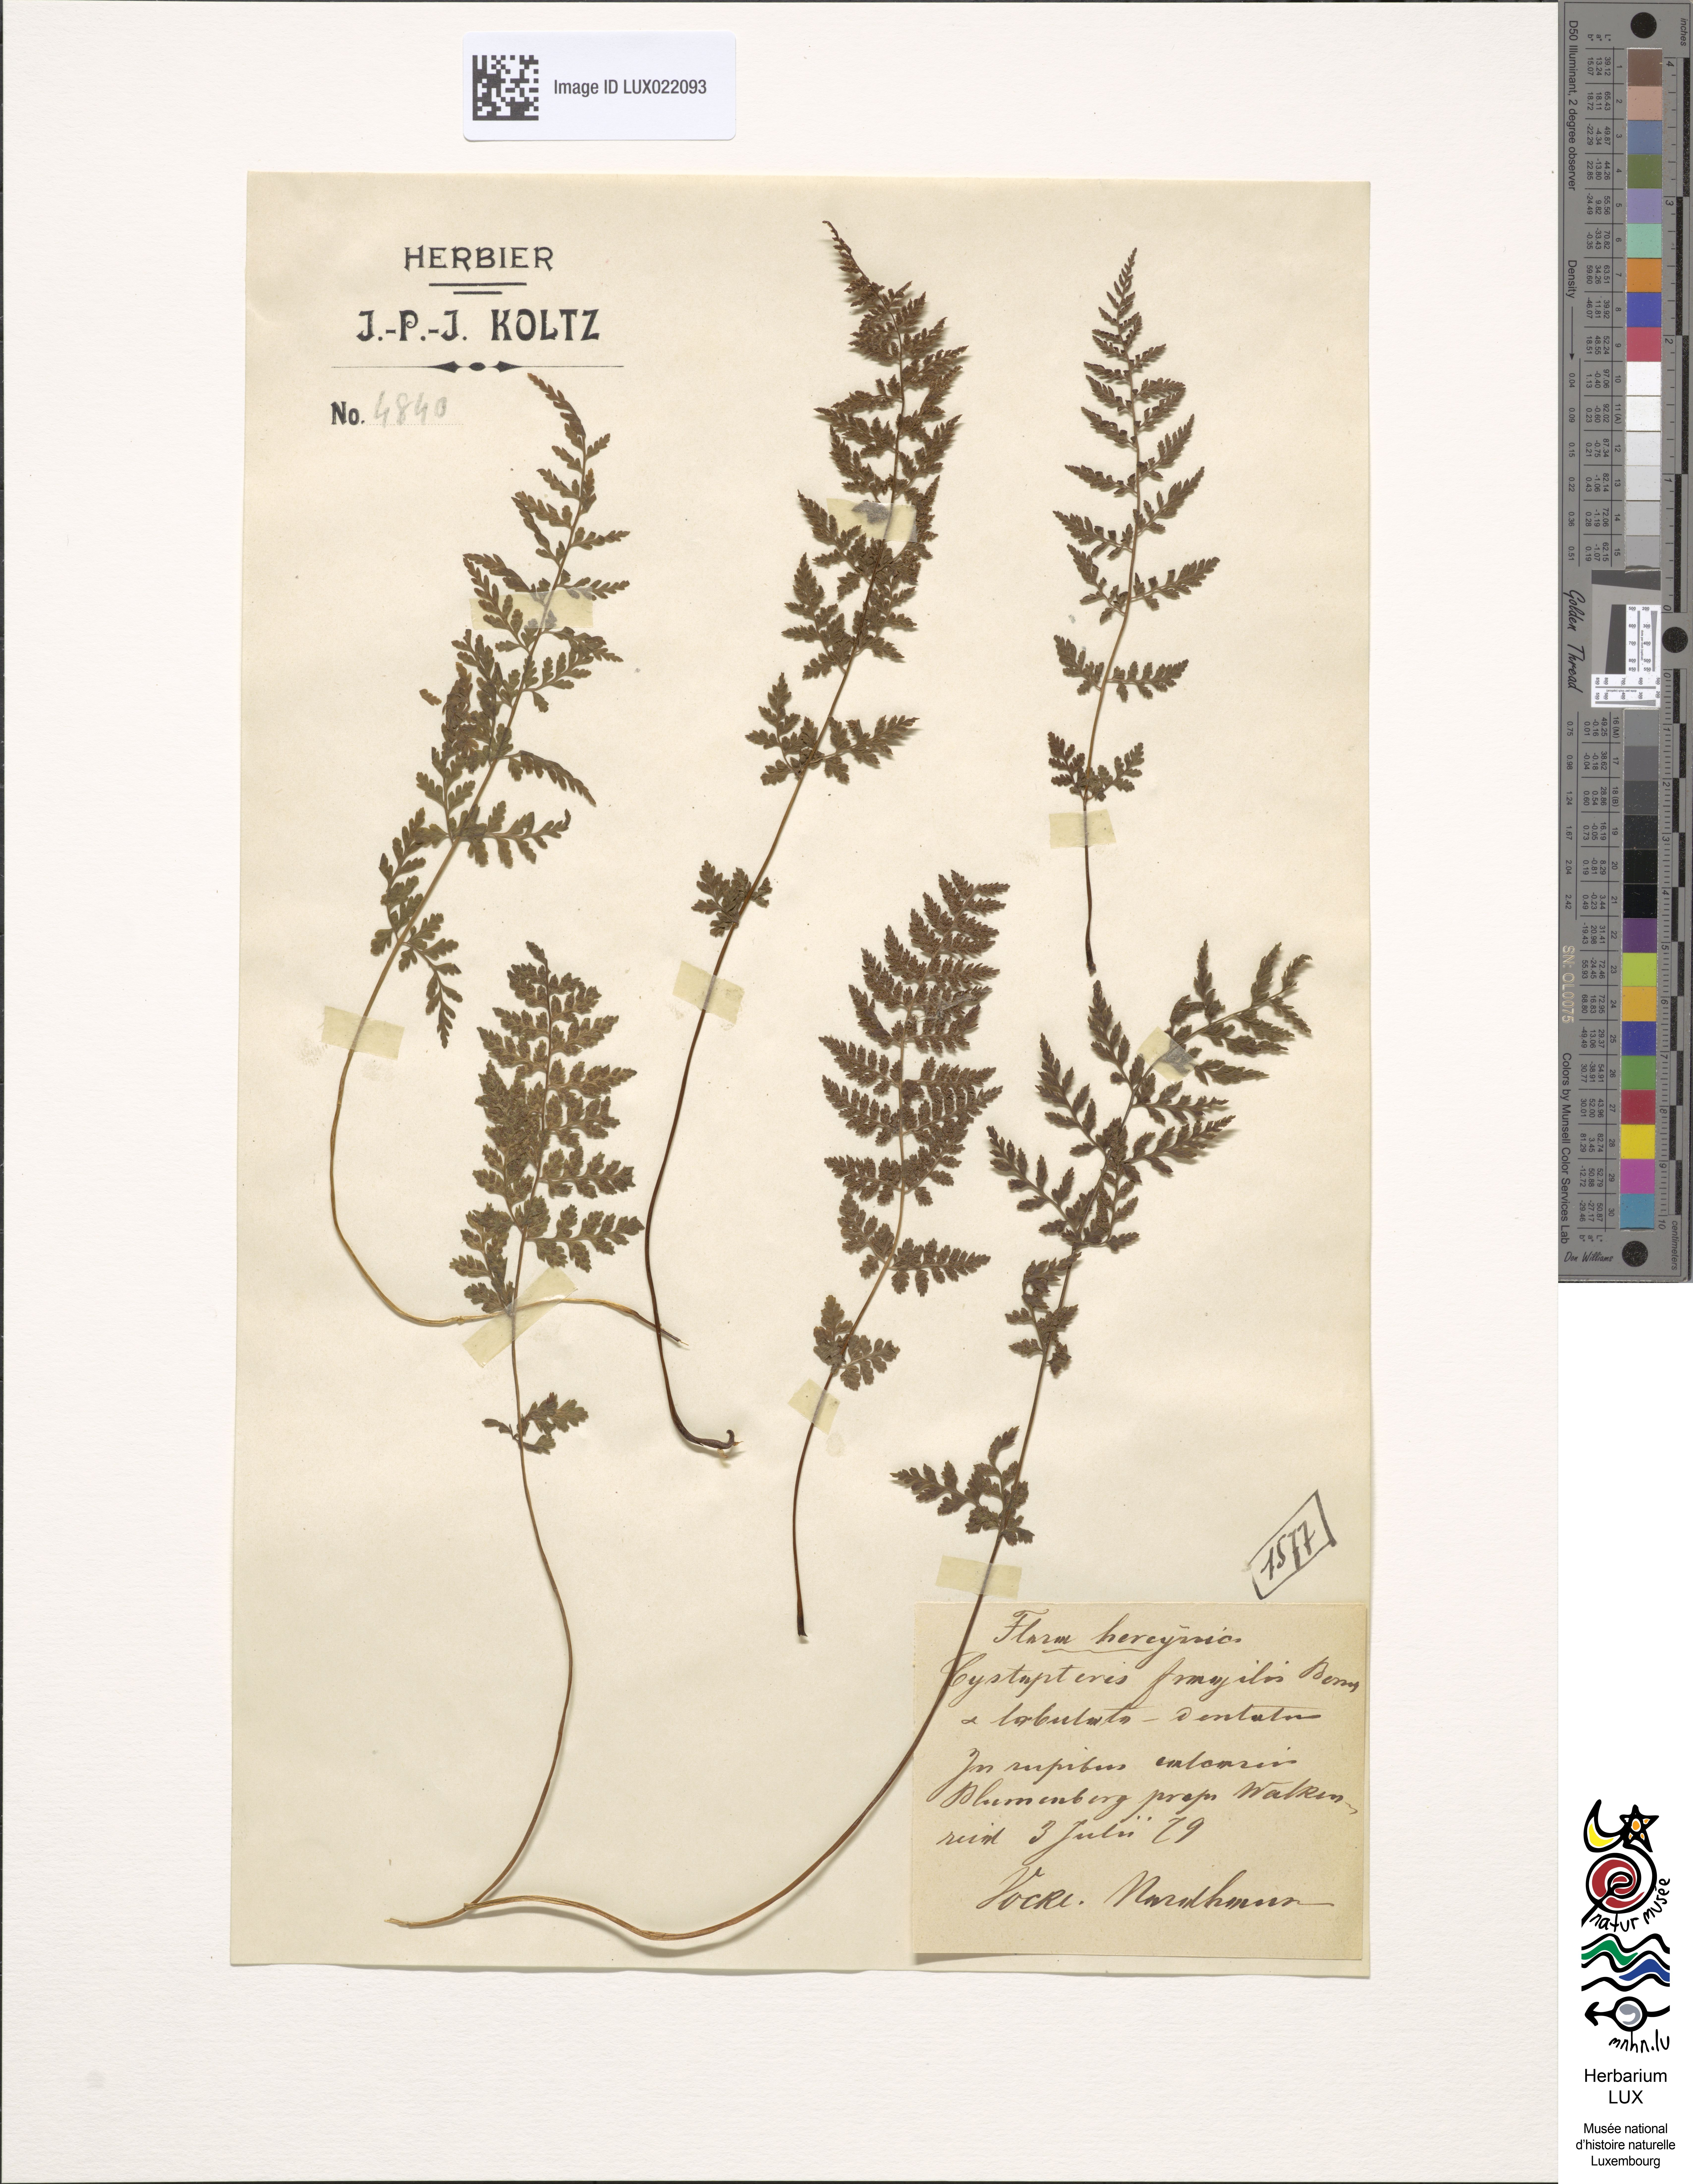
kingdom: Plantae
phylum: Tracheophyta
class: Polypodiopsida
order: Polypodiales
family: Cystopteridaceae
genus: Cystopteris
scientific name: Cystopteris fragilis
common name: Brittle bladder fern
